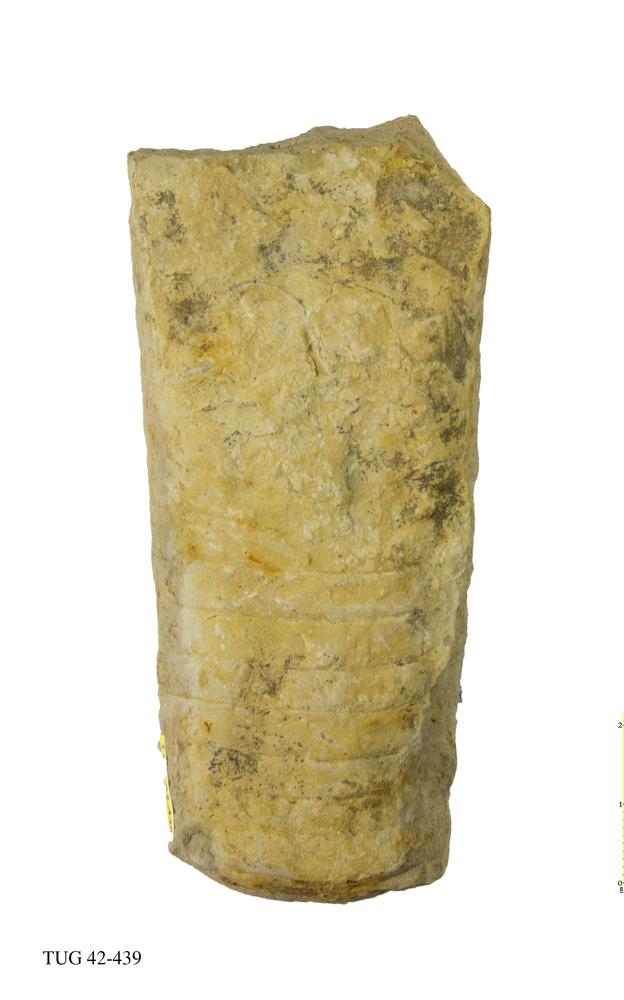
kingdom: Animalia
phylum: Mollusca
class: Cephalopoda
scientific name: Cephalopoda
